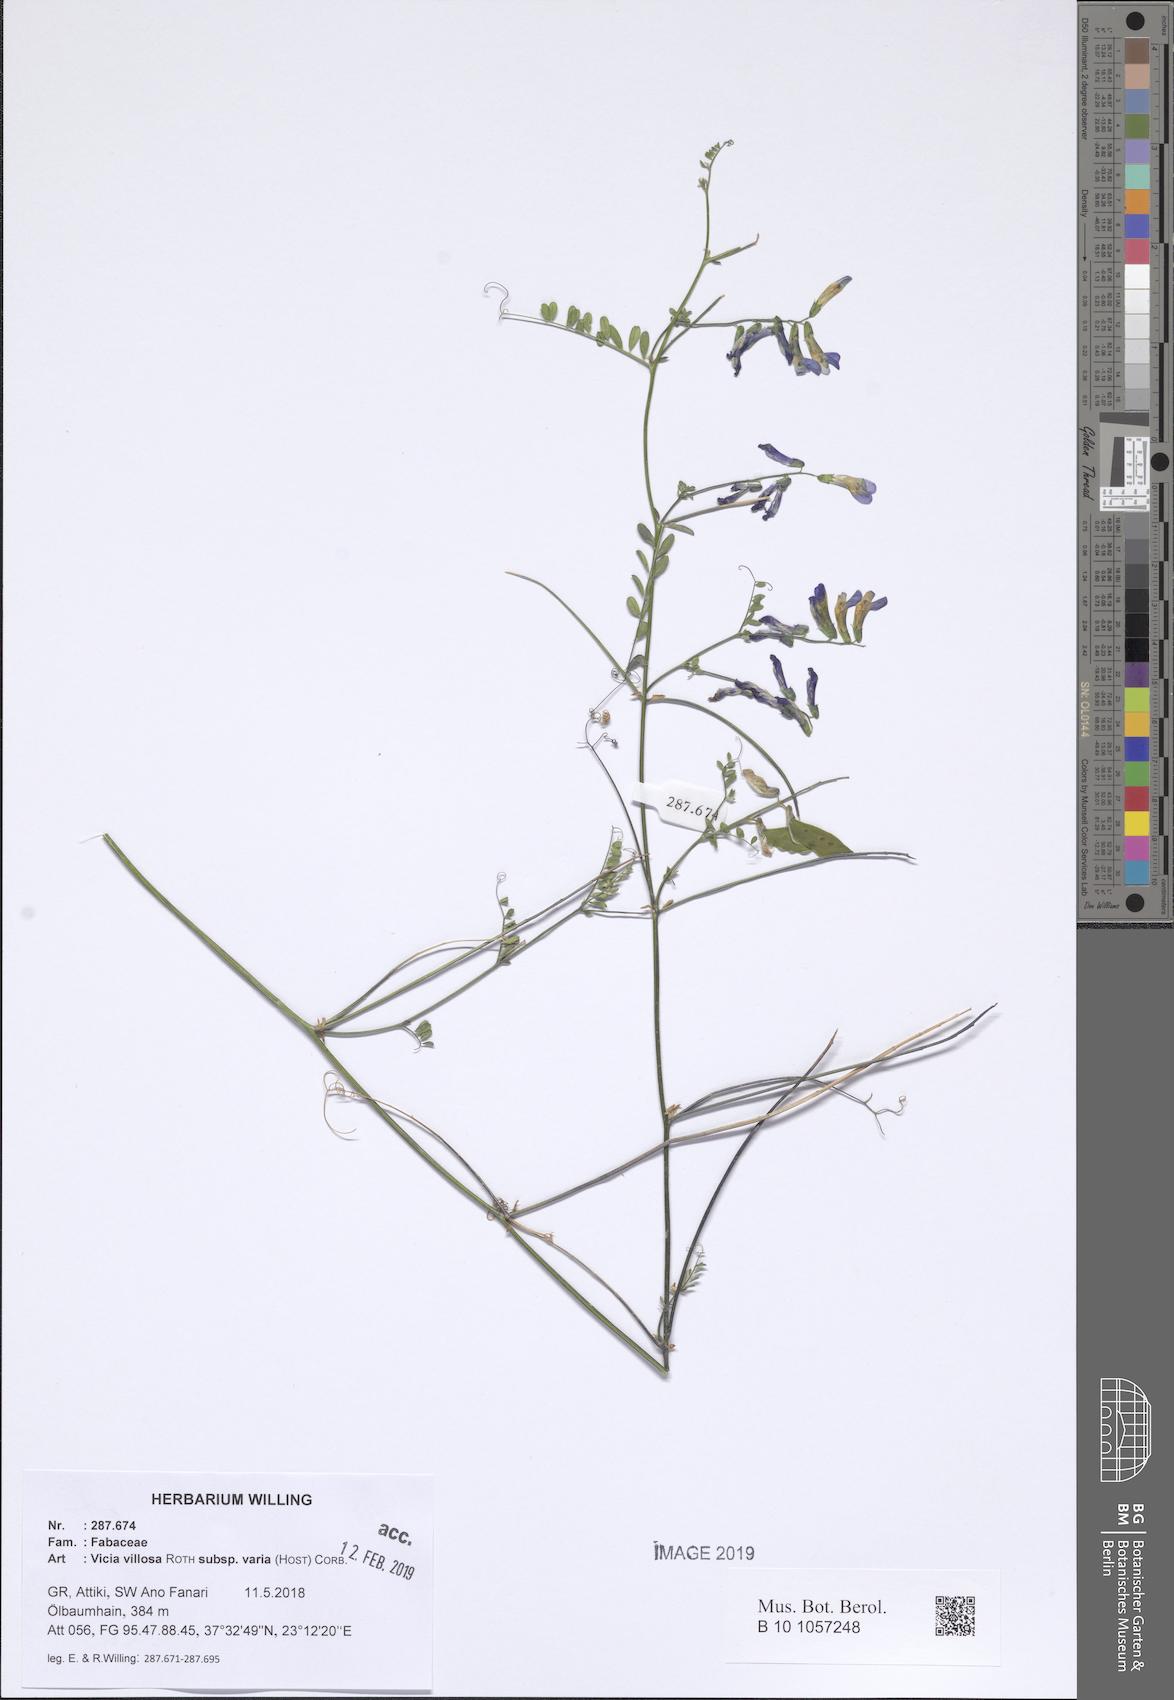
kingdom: Plantae
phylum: Tracheophyta
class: Magnoliopsida
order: Fabales
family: Fabaceae
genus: Vicia
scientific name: Vicia villosa
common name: Fodder vetch
